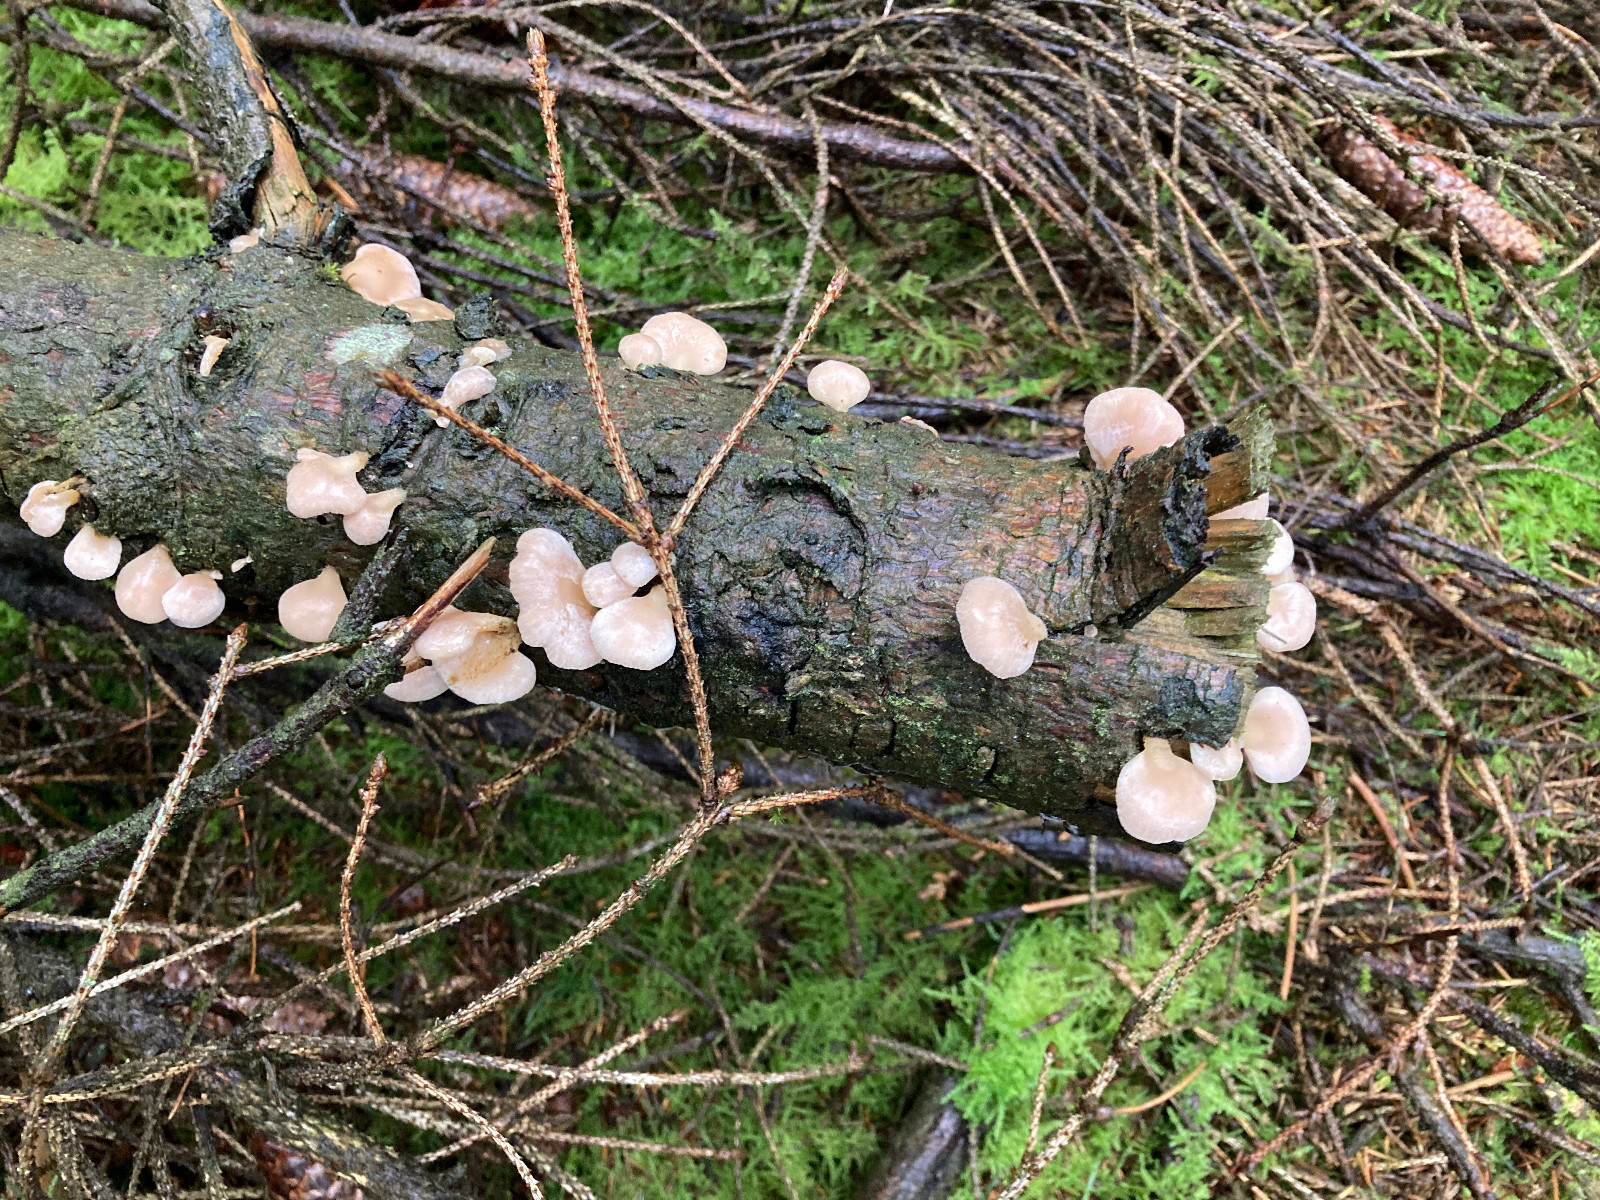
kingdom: Fungi
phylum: Basidiomycota
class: Agaricomycetes
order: Agaricales
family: Mycenaceae
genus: Panellus
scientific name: Panellus mitis
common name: mild epaulethat
